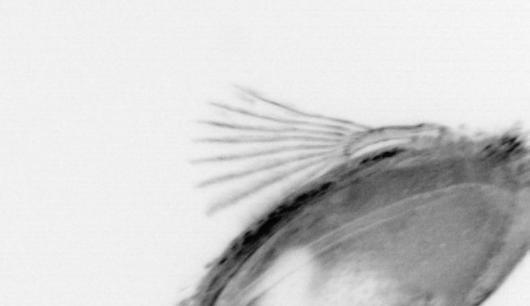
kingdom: Animalia
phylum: Chordata
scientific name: Chordata
